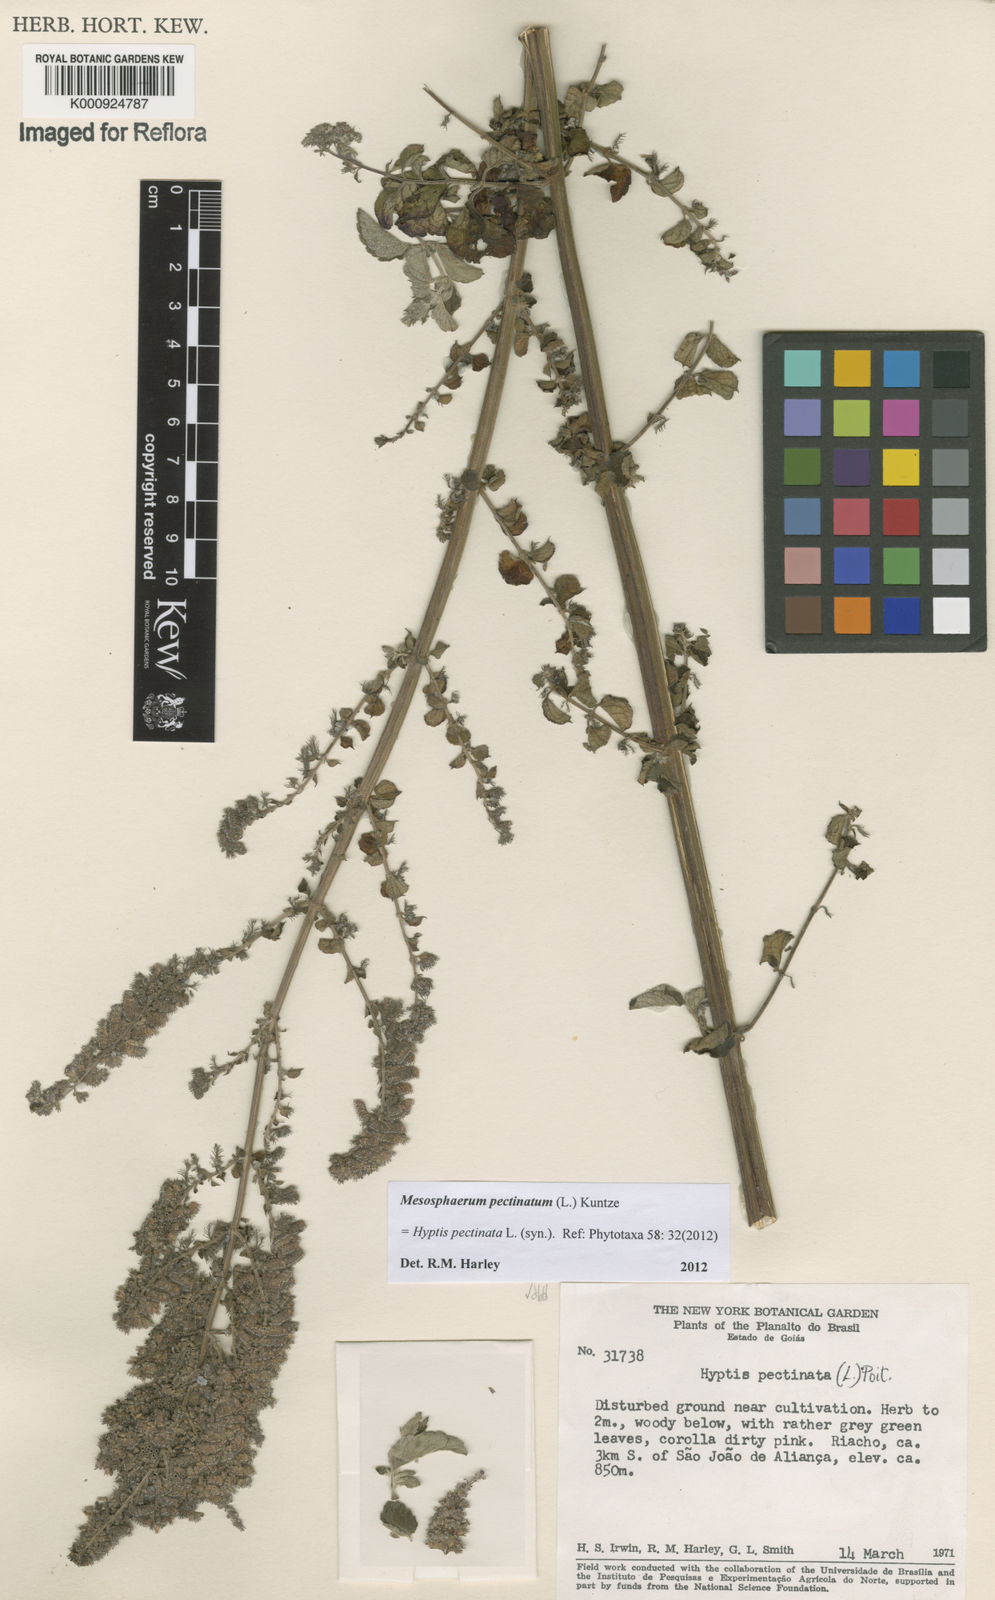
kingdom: Plantae
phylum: Tracheophyta
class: Magnoliopsida
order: Lamiales
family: Lamiaceae
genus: Mesosphaerum
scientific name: Mesosphaerum pectinatum
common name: Comb hyptis
